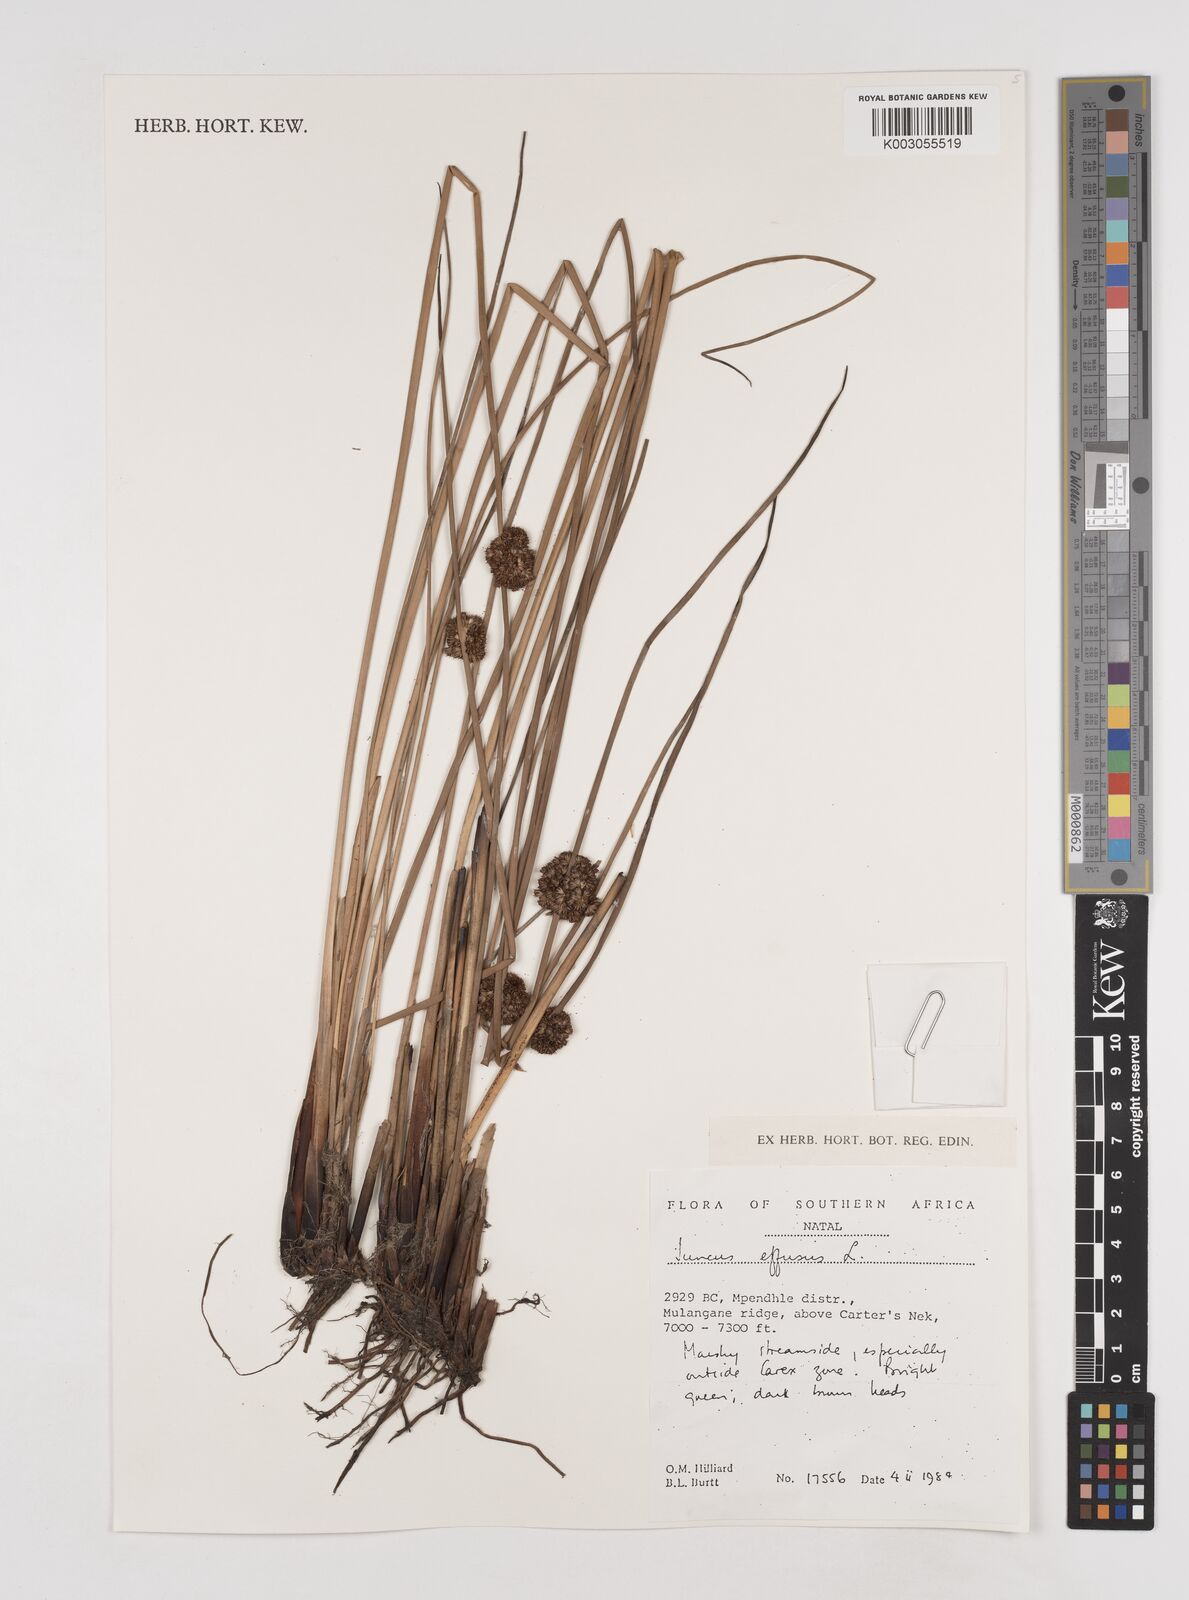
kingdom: Plantae
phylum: Tracheophyta
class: Liliopsida
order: Poales
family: Juncaceae
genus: Juncus
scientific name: Juncus effusus
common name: Soft rush
